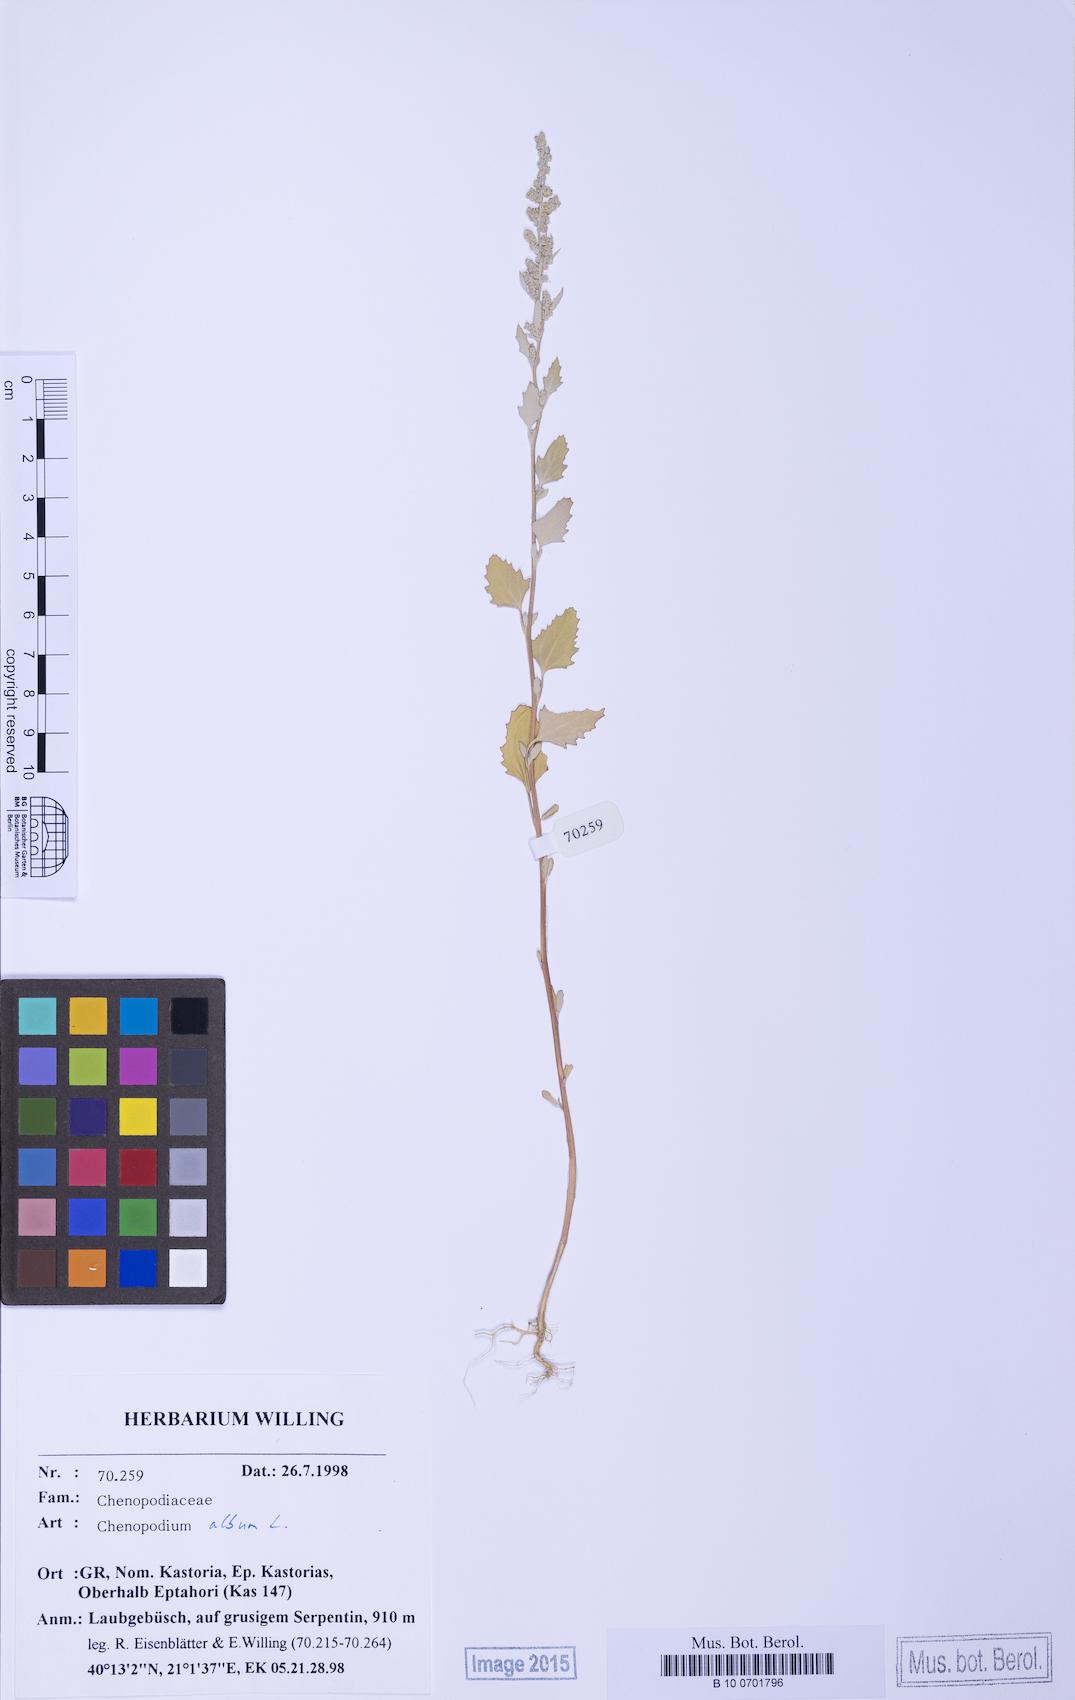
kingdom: Plantae
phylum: Tracheophyta
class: Magnoliopsida
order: Caryophyllales
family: Amaranthaceae
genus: Chenopodium
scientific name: Chenopodium betaceum
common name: Striped goosefoot
